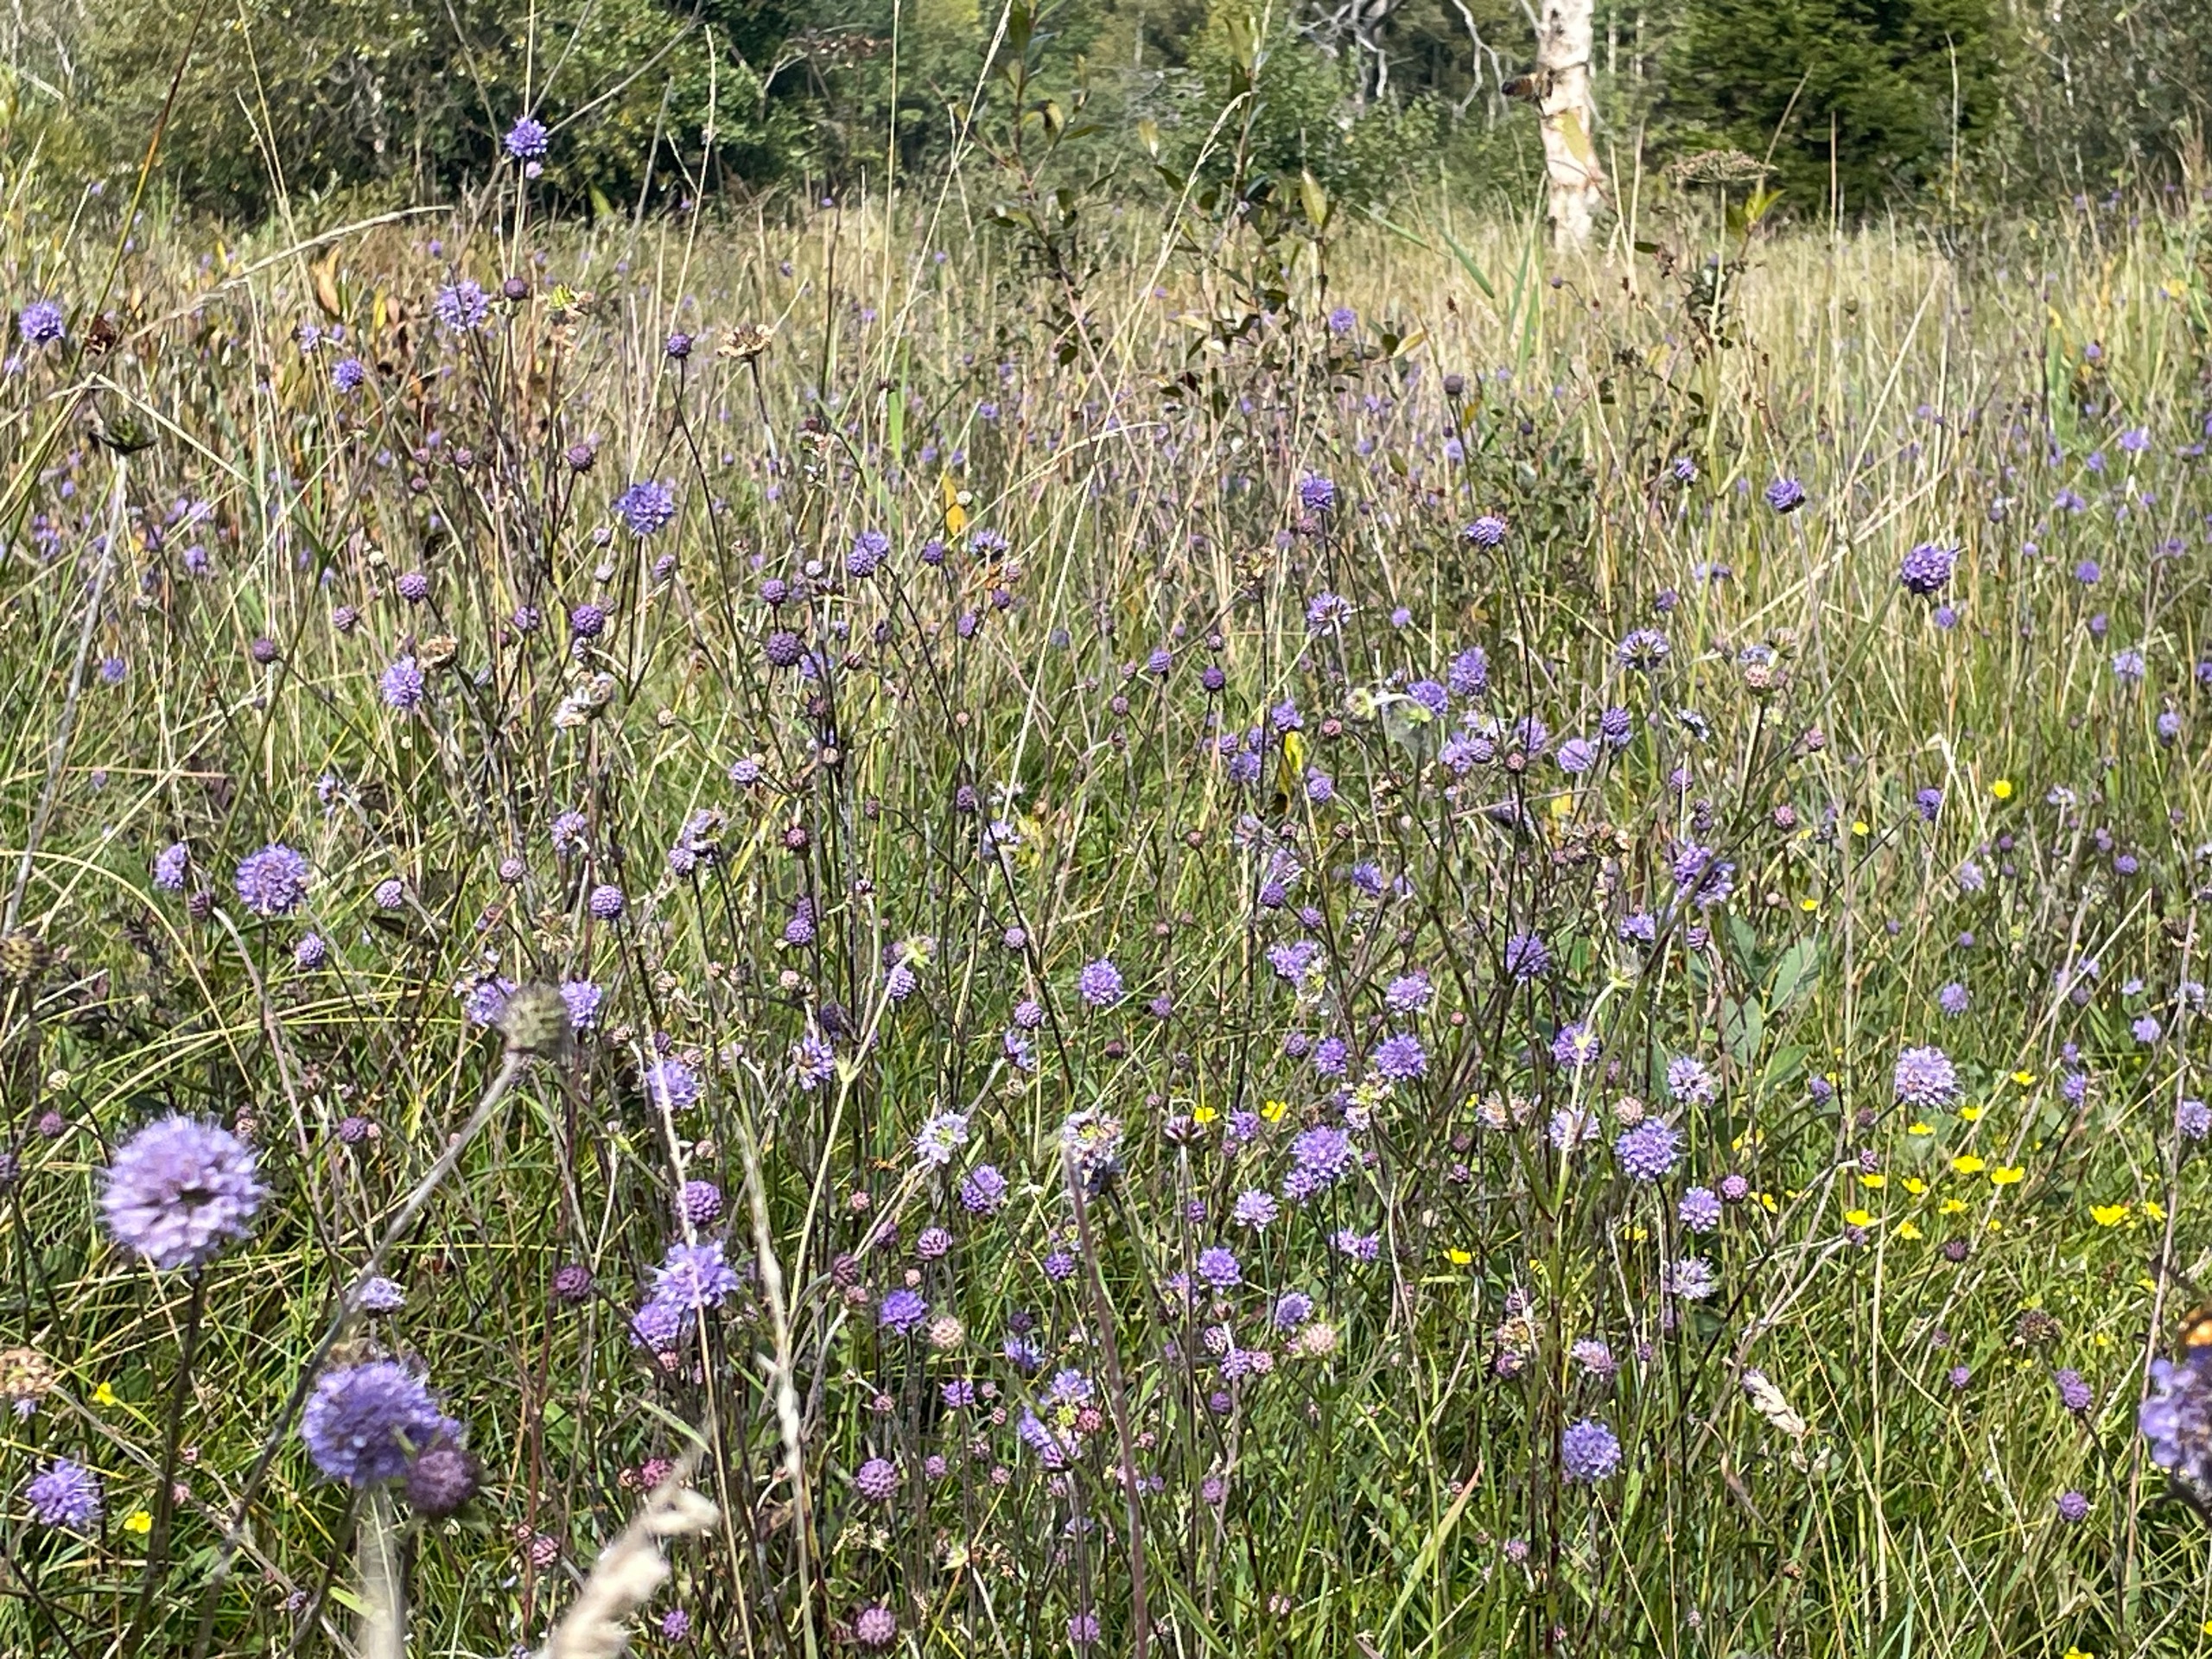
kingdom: Plantae
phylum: Tracheophyta
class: Magnoliopsida
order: Dipsacales
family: Caprifoliaceae
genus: Succisa
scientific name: Succisa pratensis
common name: Djævelsbid
